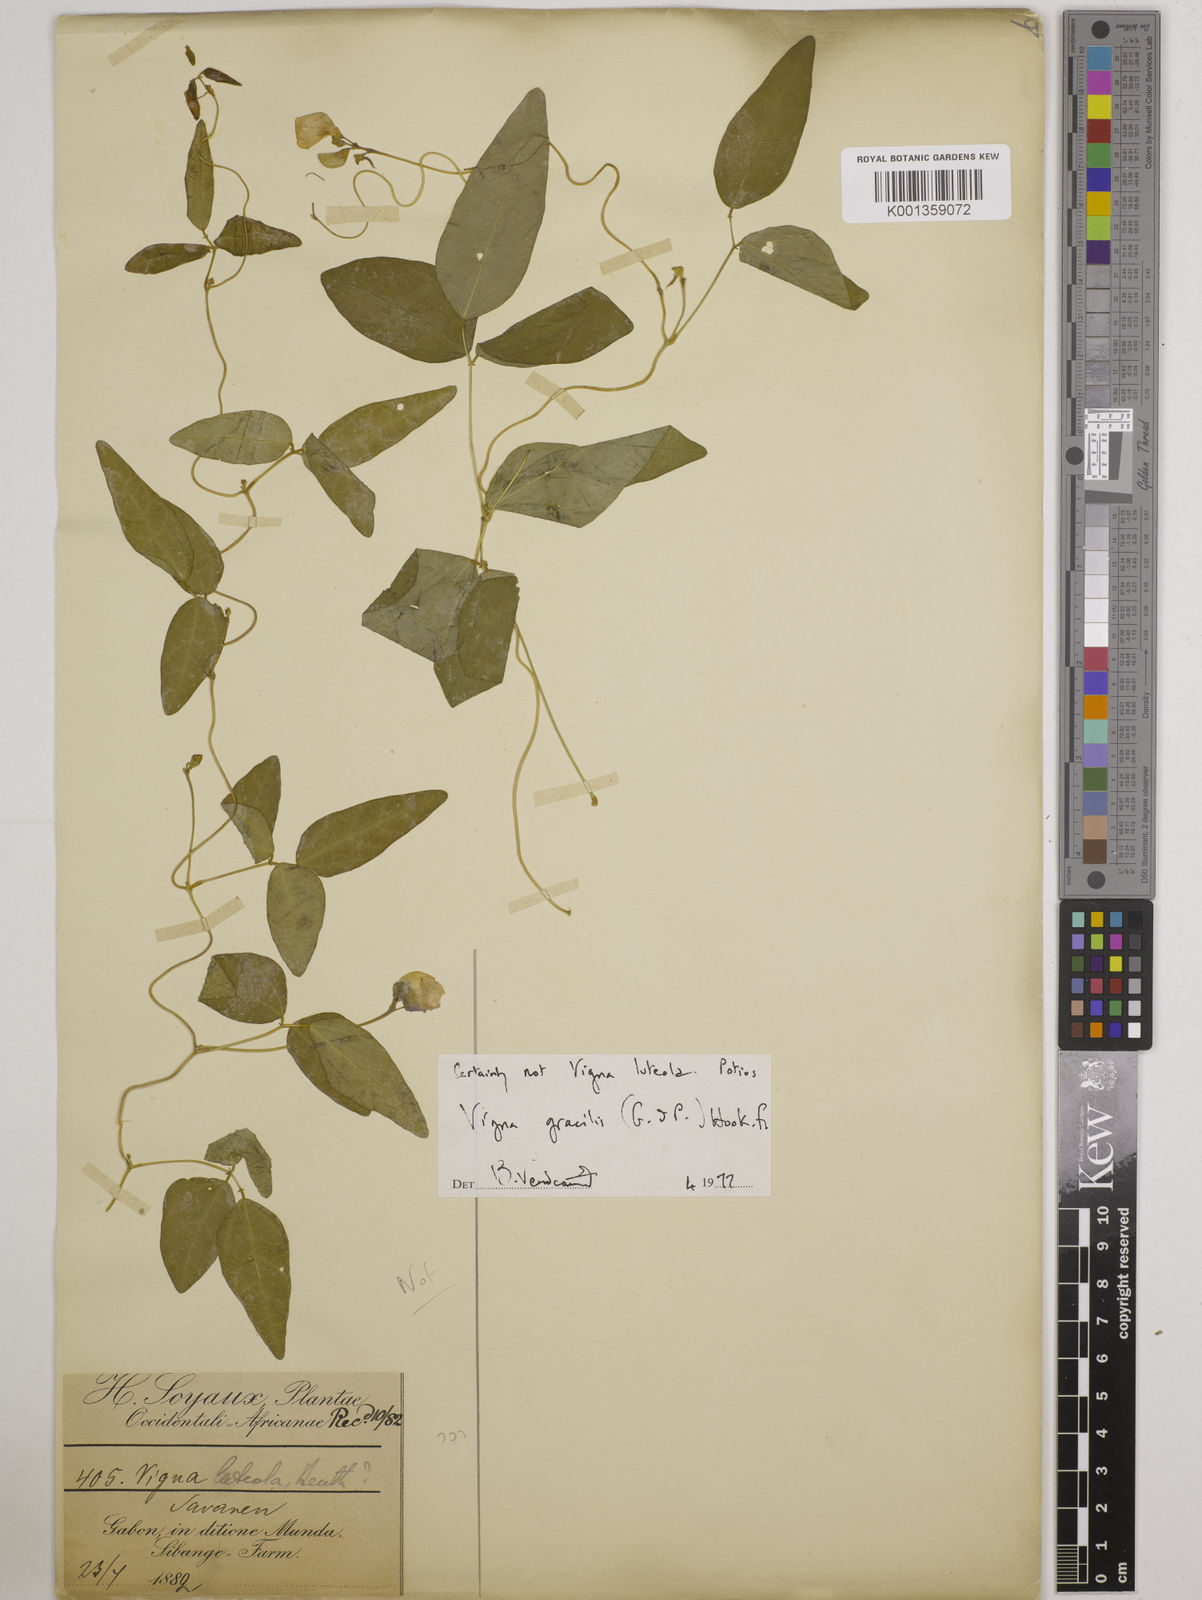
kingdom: Plantae
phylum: Tracheophyta
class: Magnoliopsida
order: Fabales
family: Fabaceae
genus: Vigna
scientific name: Vigna gracilis
